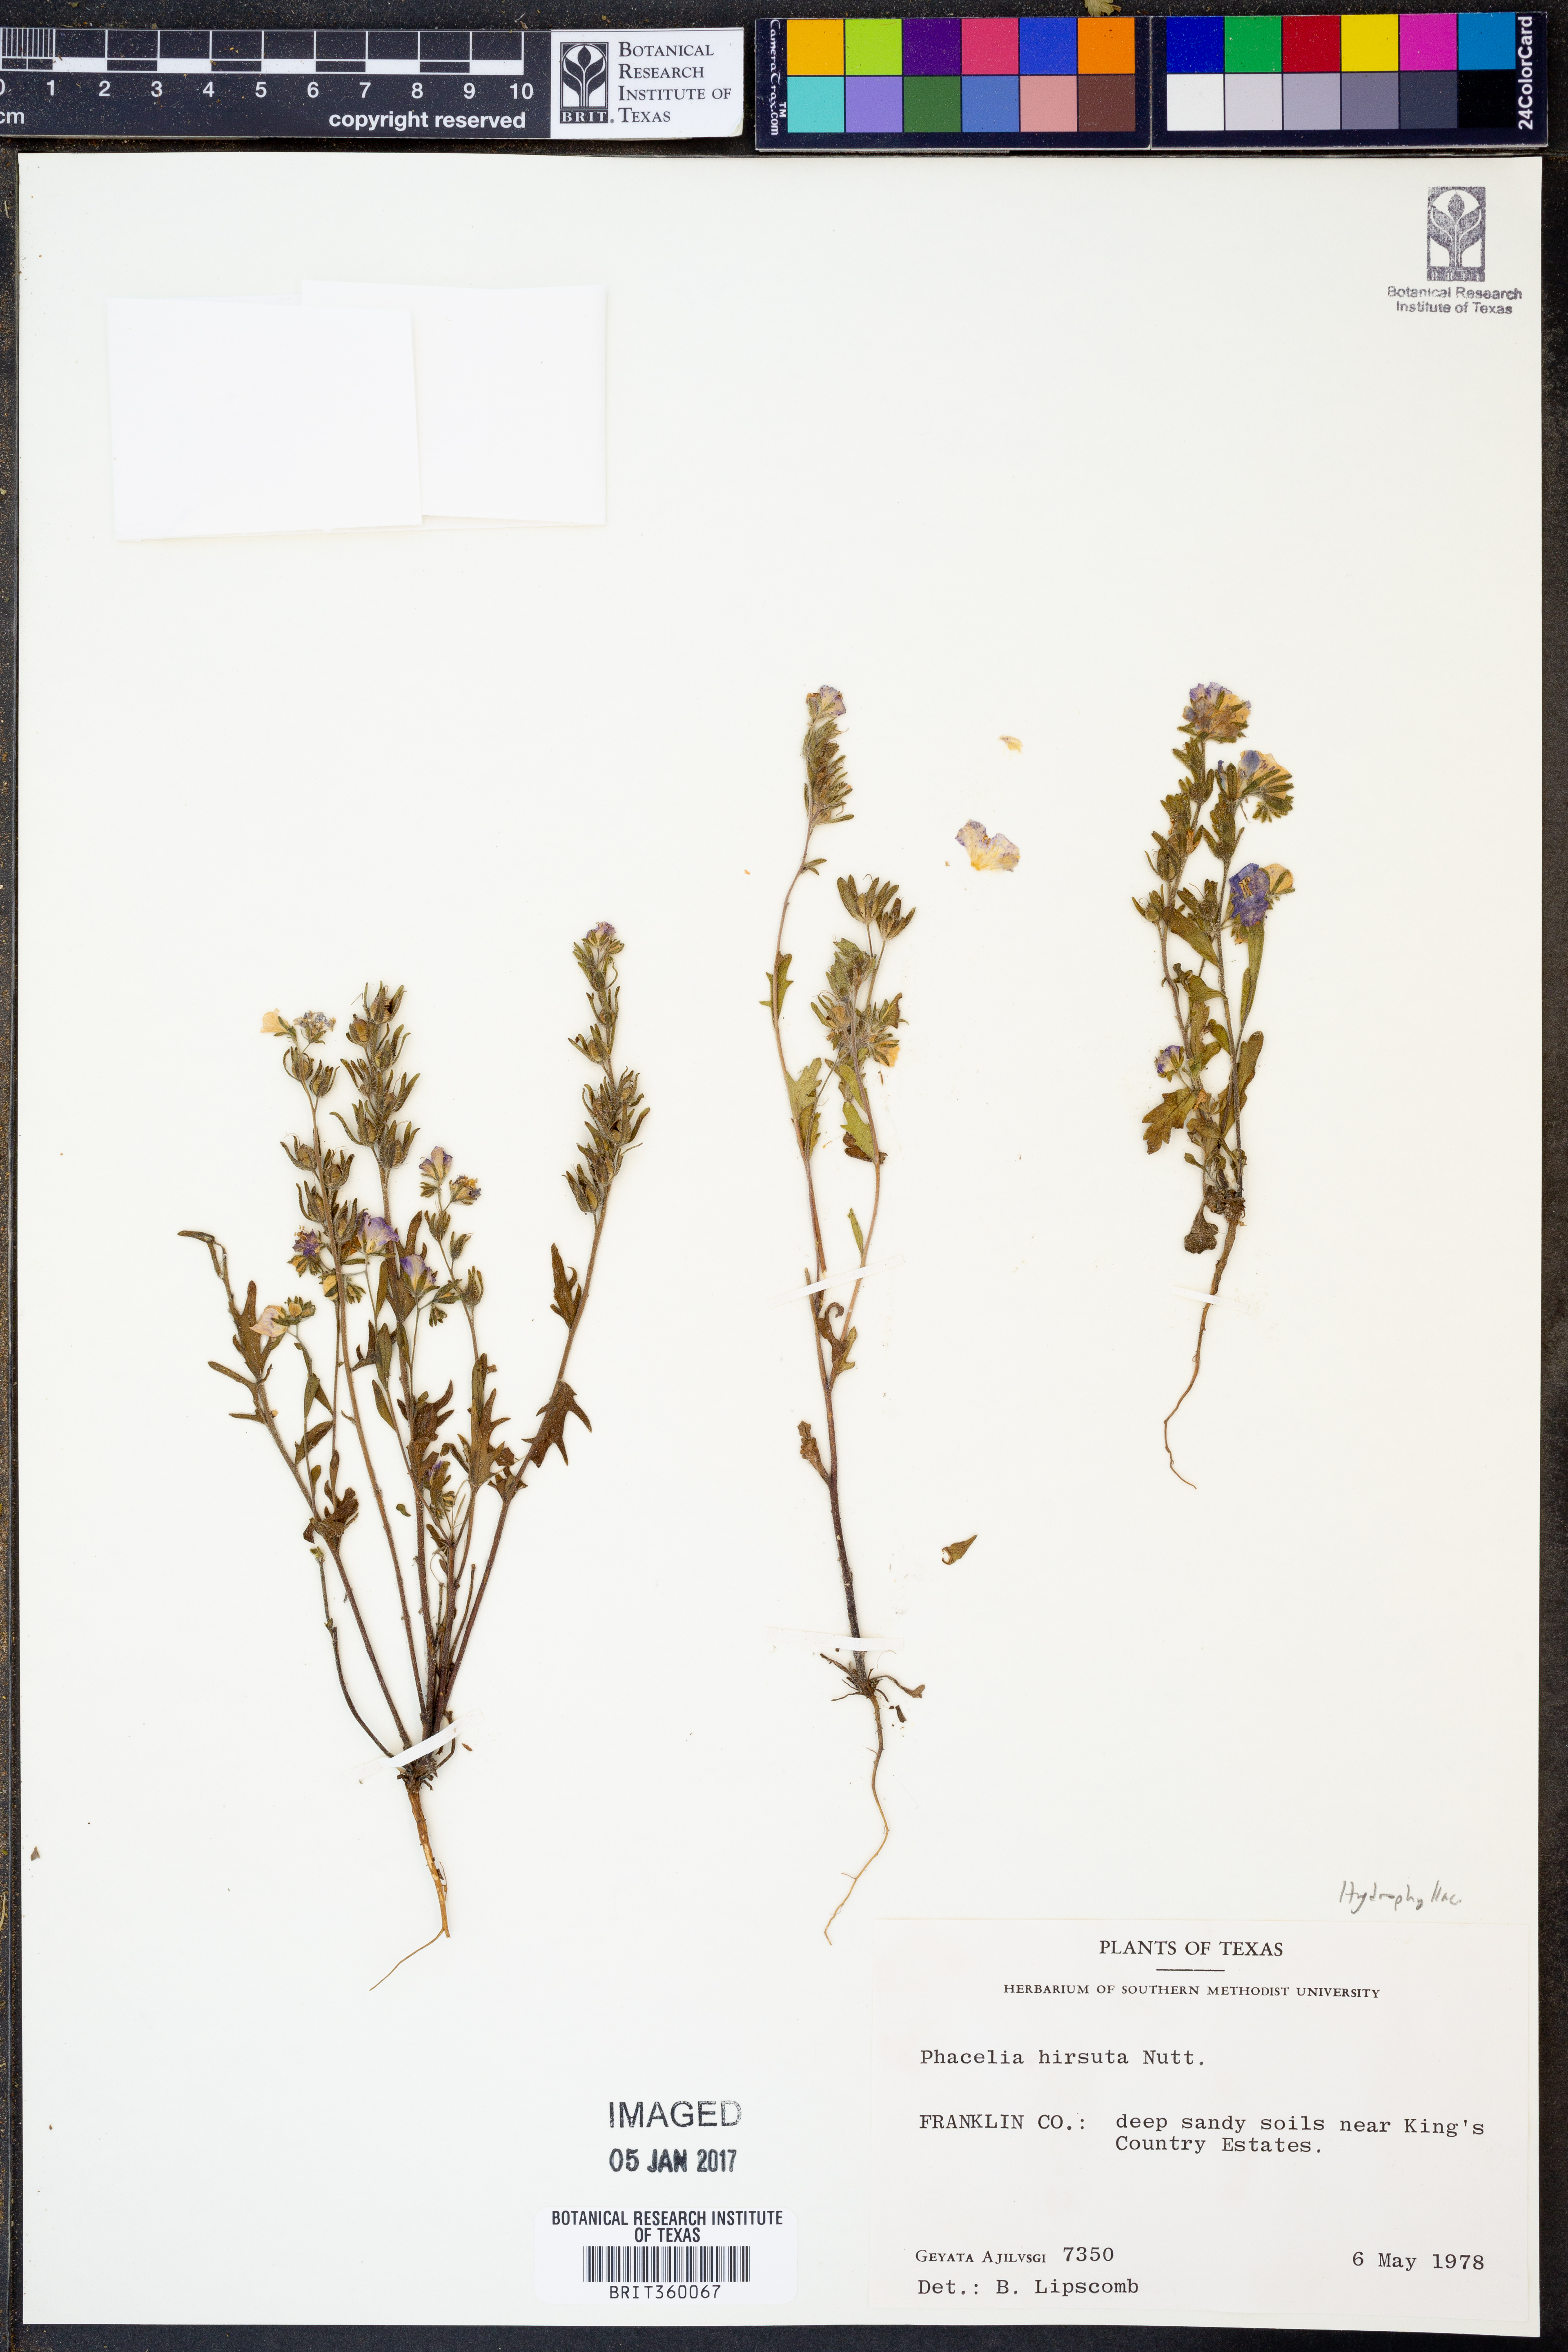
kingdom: Plantae
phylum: Tracheophyta
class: Magnoliopsida
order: Boraginales
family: Hydrophyllaceae
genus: Phacelia
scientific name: Phacelia hirsuta
